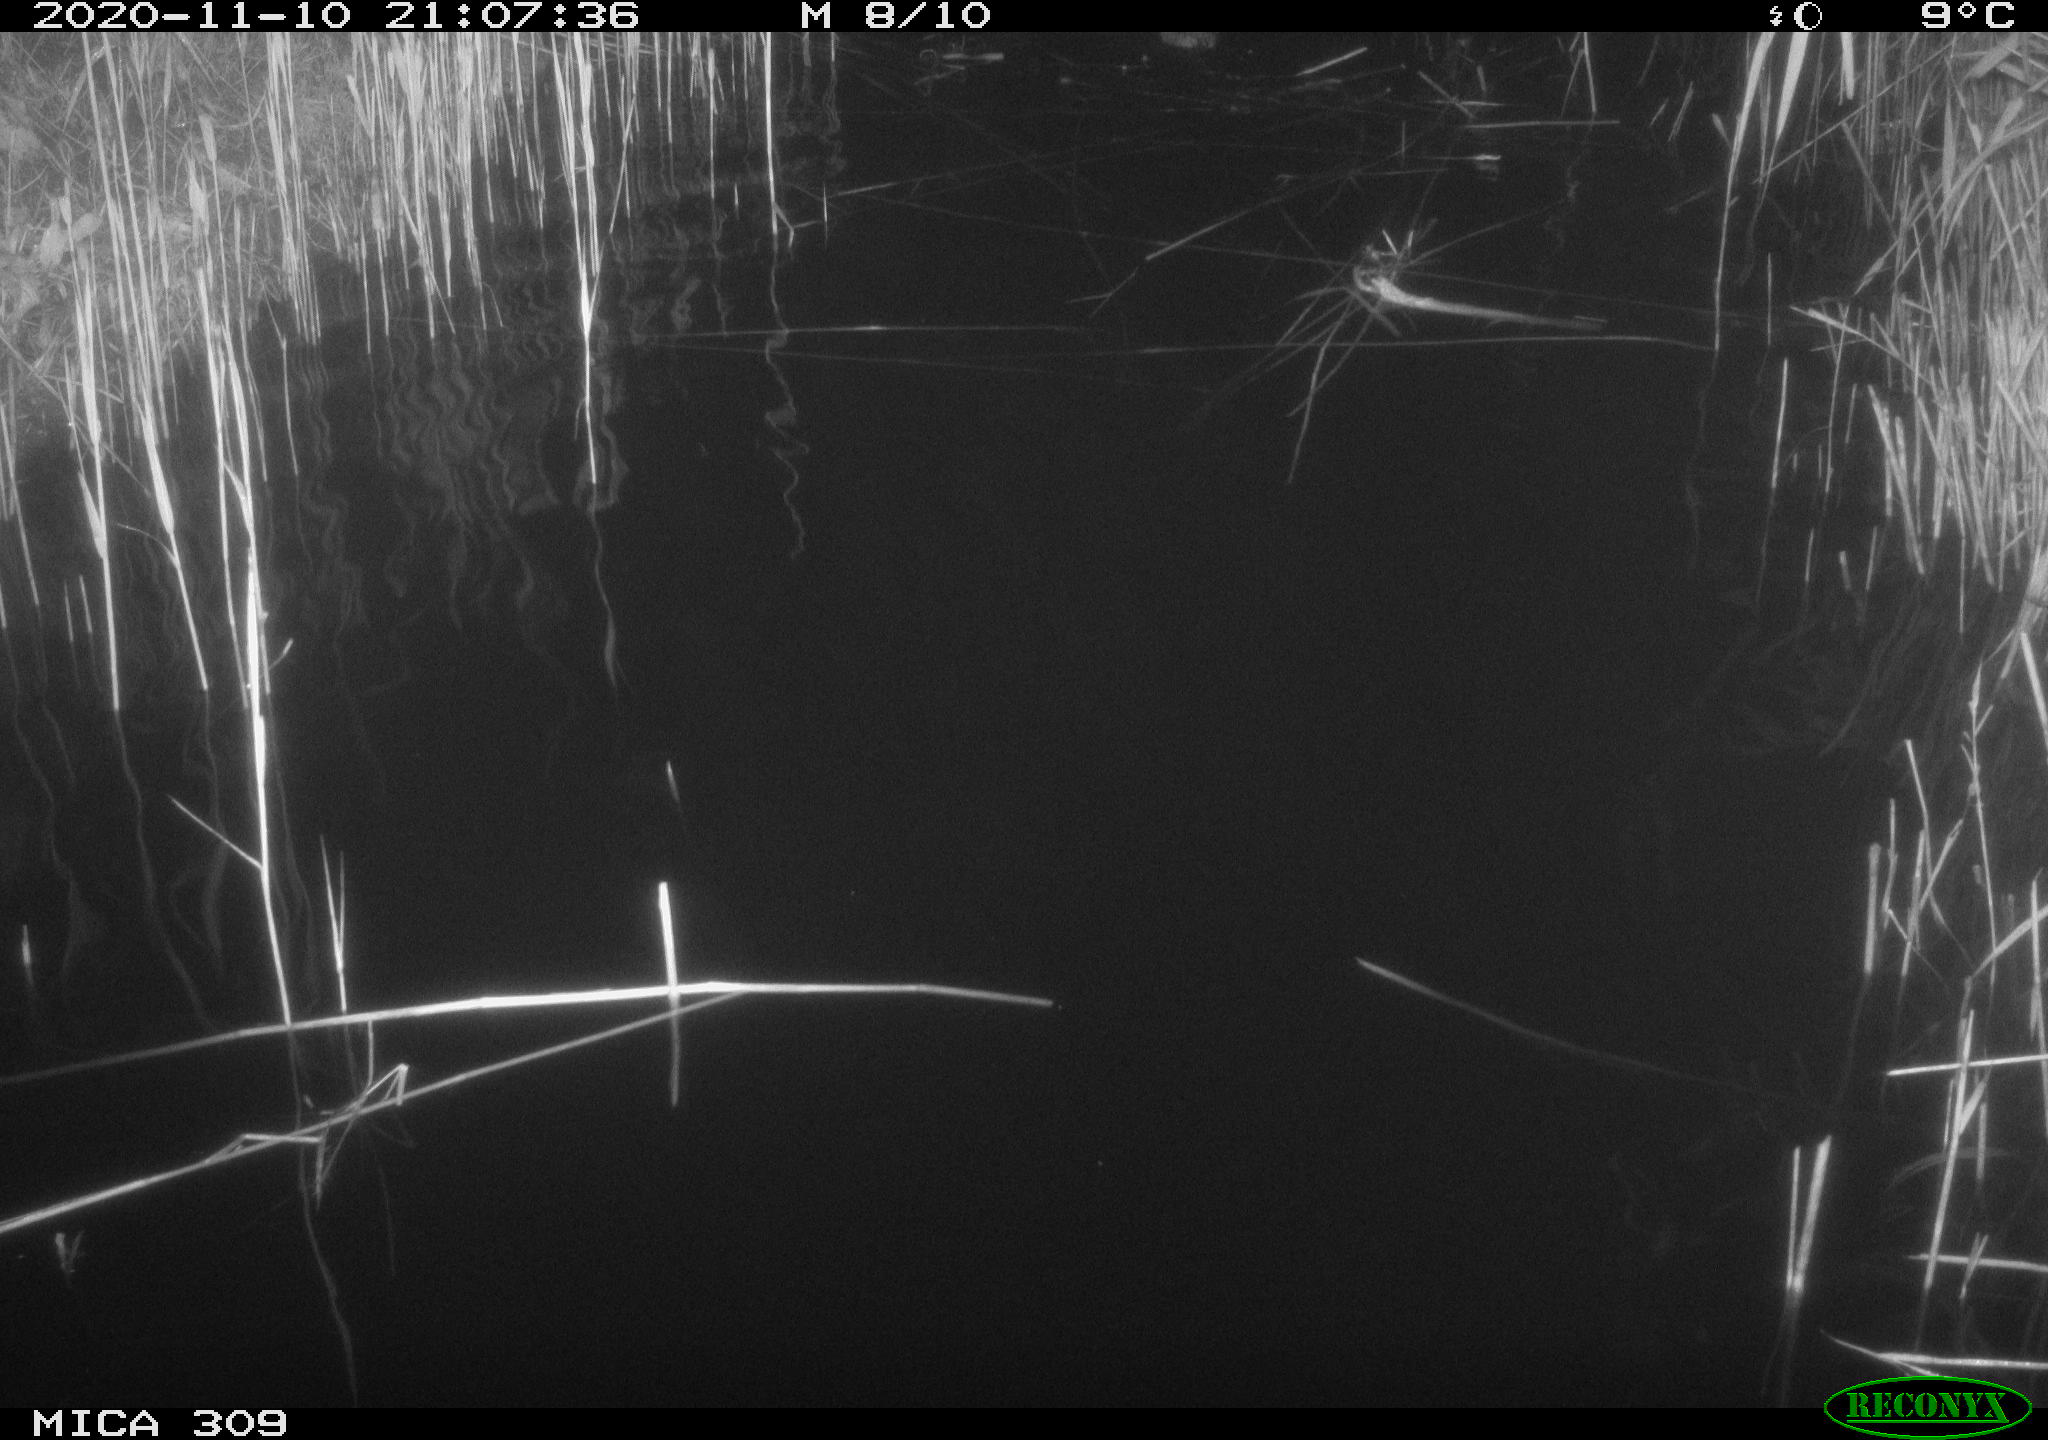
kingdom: Animalia
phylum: Chordata
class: Mammalia
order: Rodentia
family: Cricetidae
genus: Ondatra
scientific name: Ondatra zibethicus
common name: Muskrat
